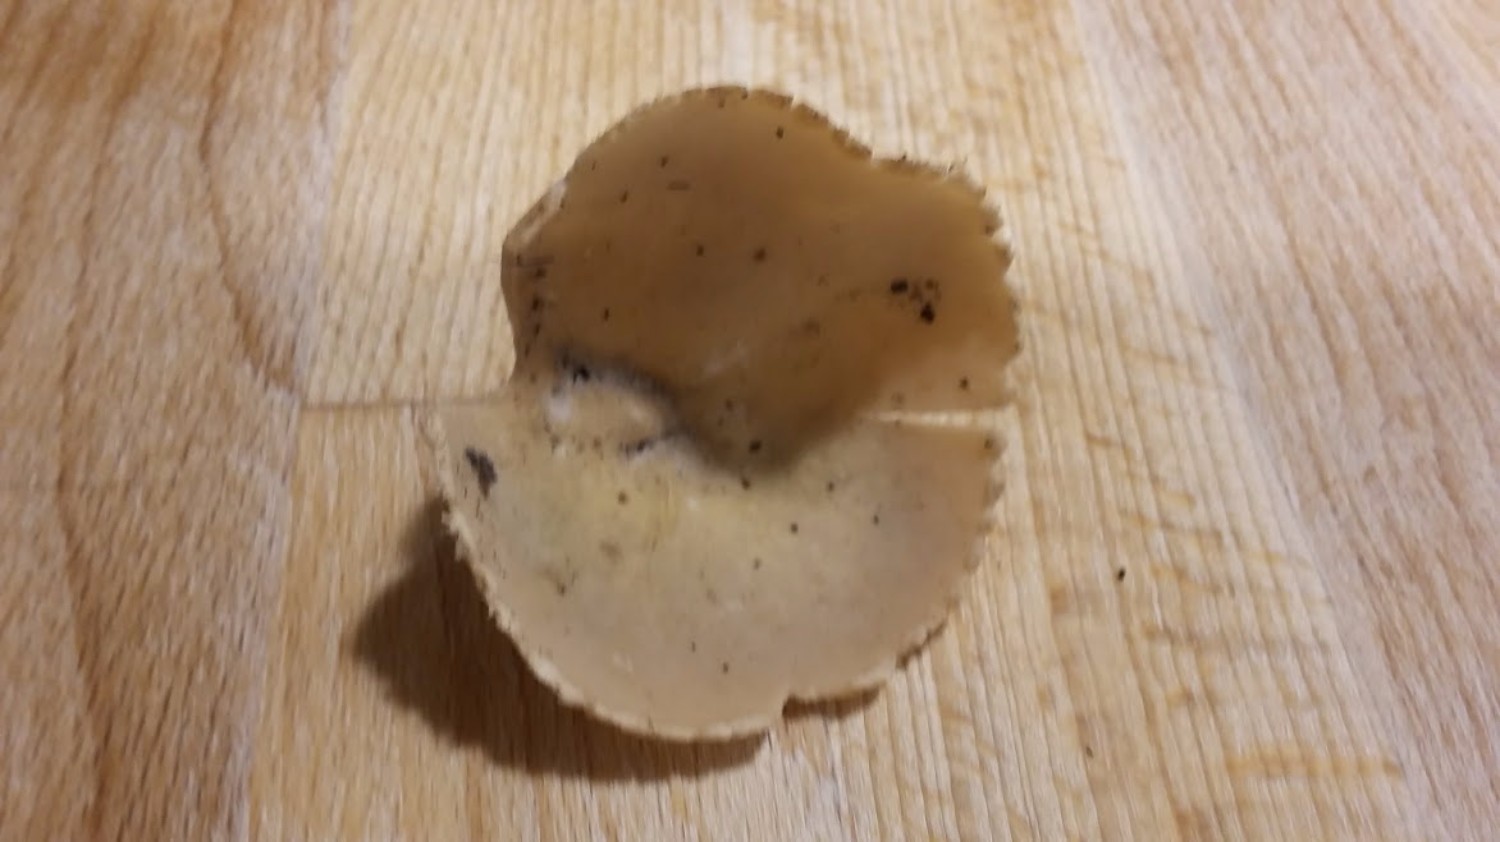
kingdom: Fungi
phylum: Ascomycota
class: Pezizomycetes
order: Pezizales
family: Pyronemataceae
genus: Tarzetta
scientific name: Tarzetta cupularis
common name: gulbrun pokalbæger
